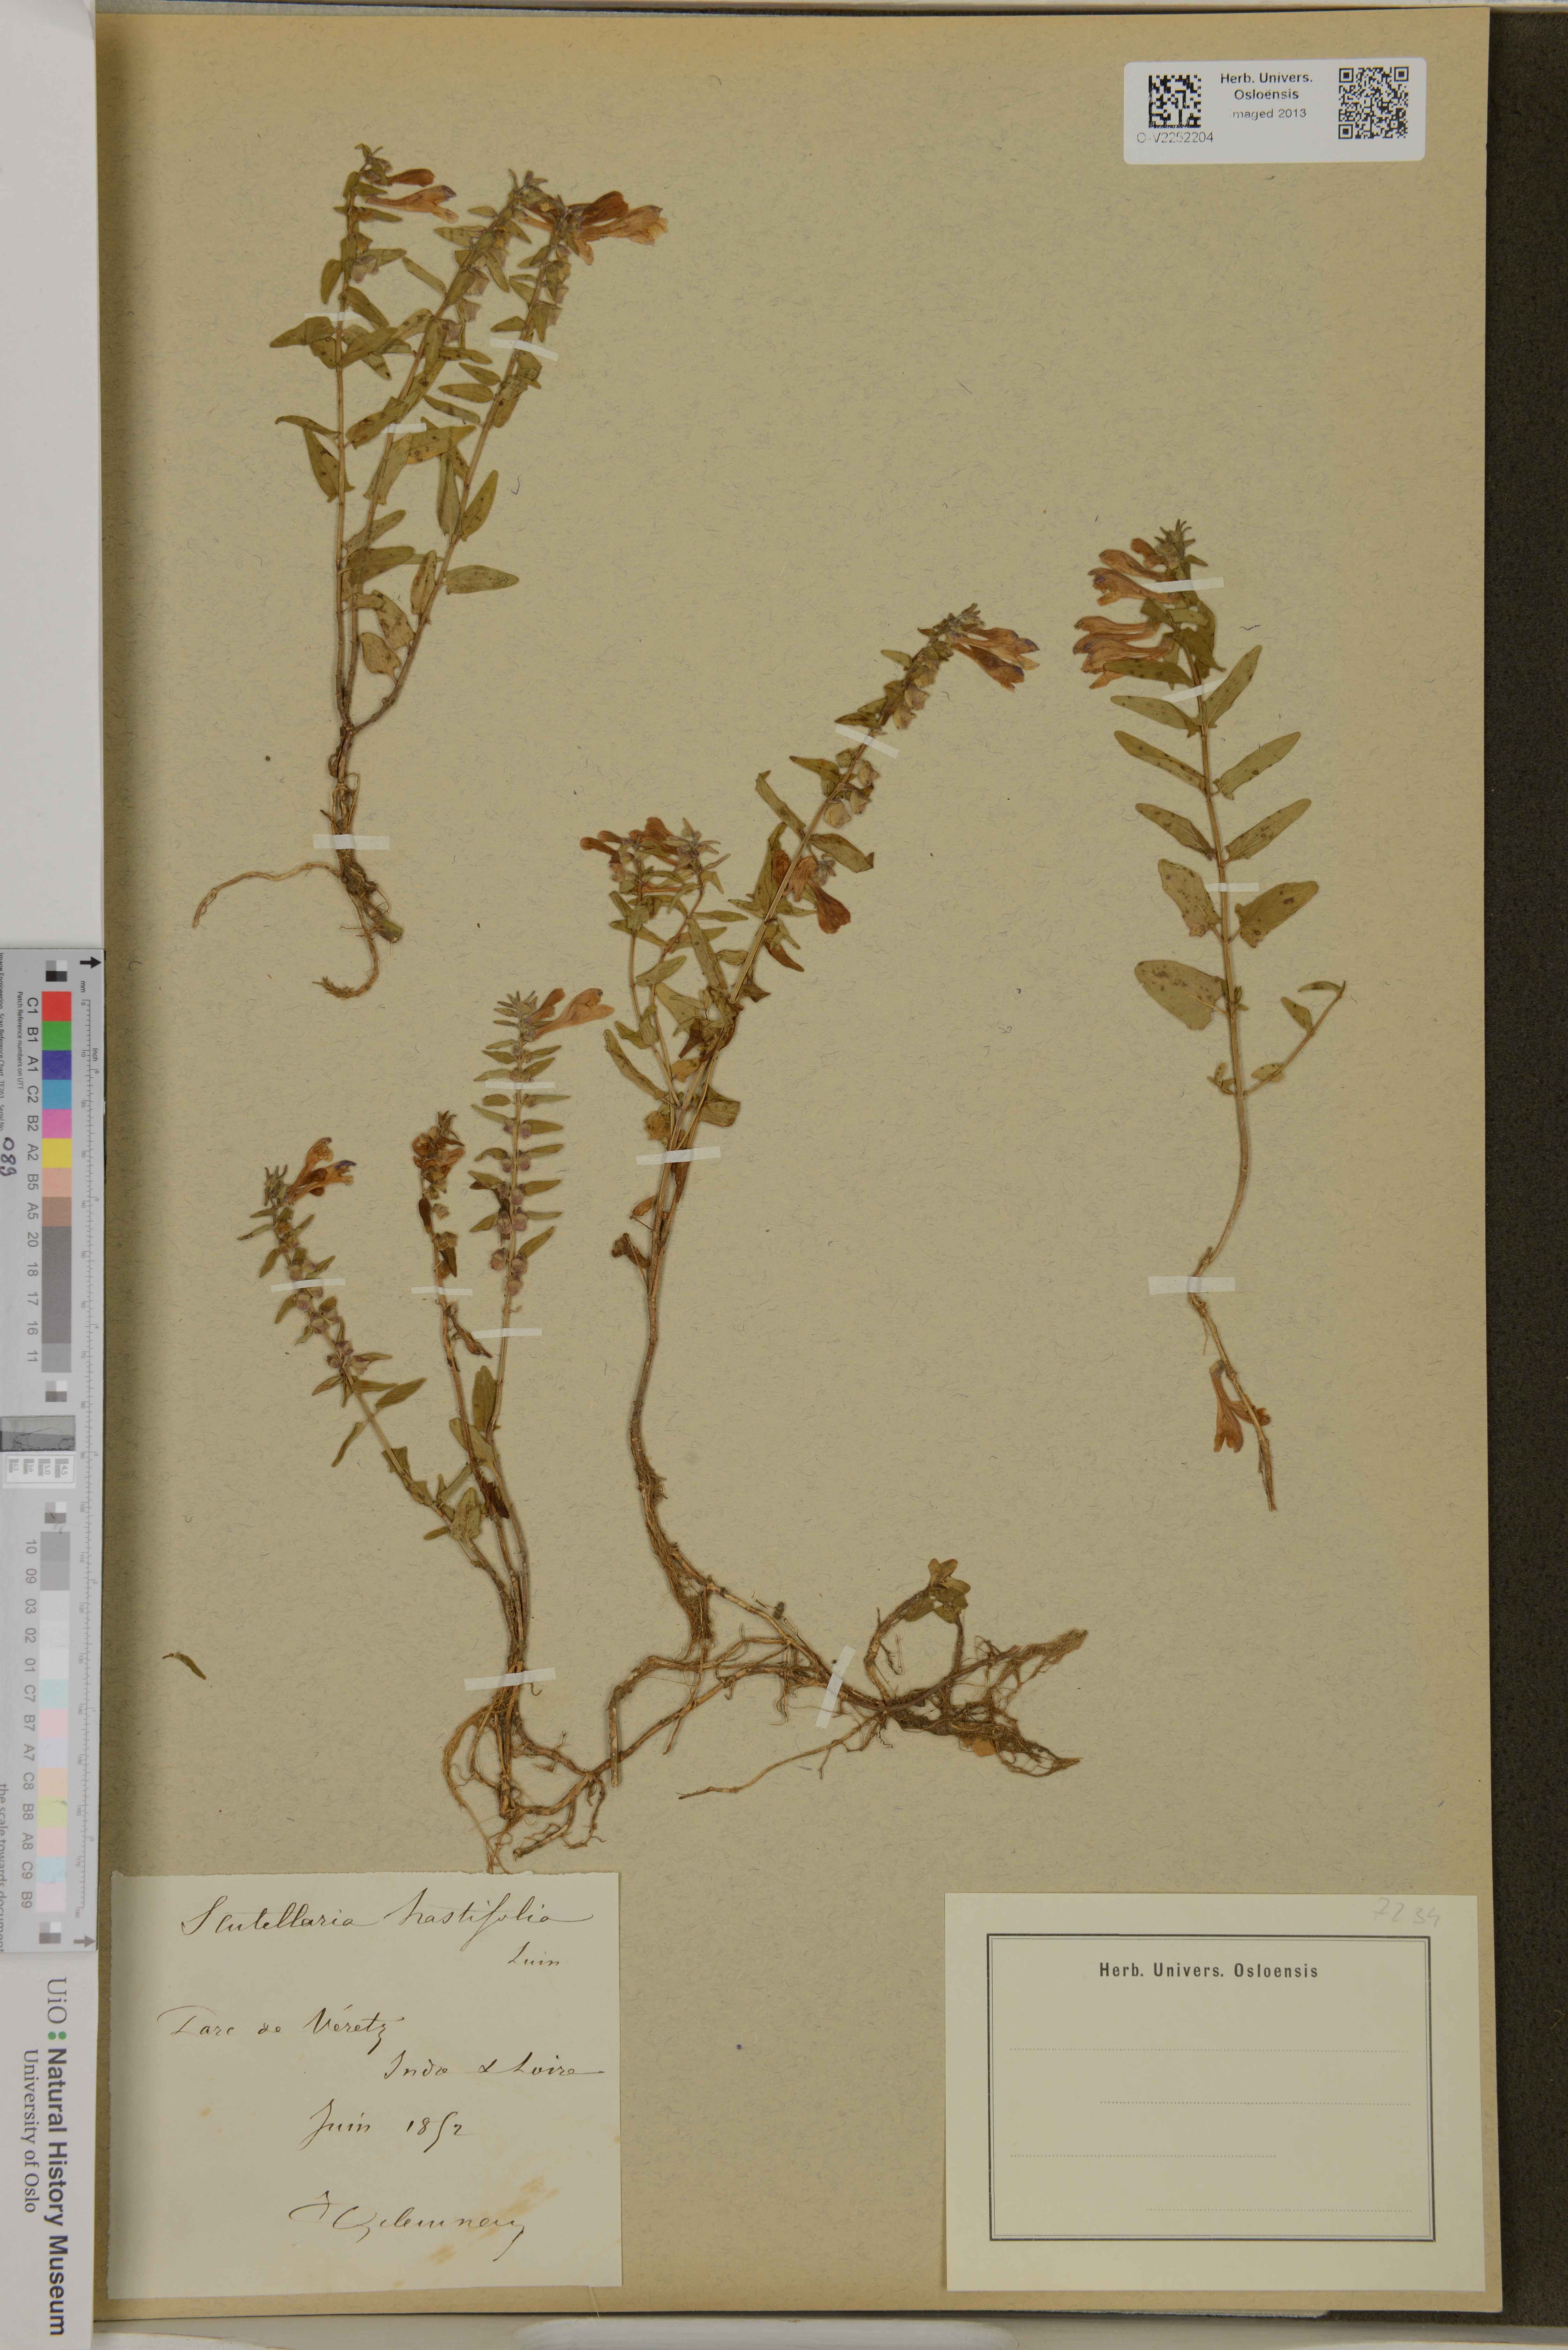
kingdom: Plantae
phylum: Tracheophyta
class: Magnoliopsida
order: Lamiales
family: Lamiaceae
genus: Scutellaria
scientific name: Scutellaria hastifolia
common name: Norfolk skullcap
